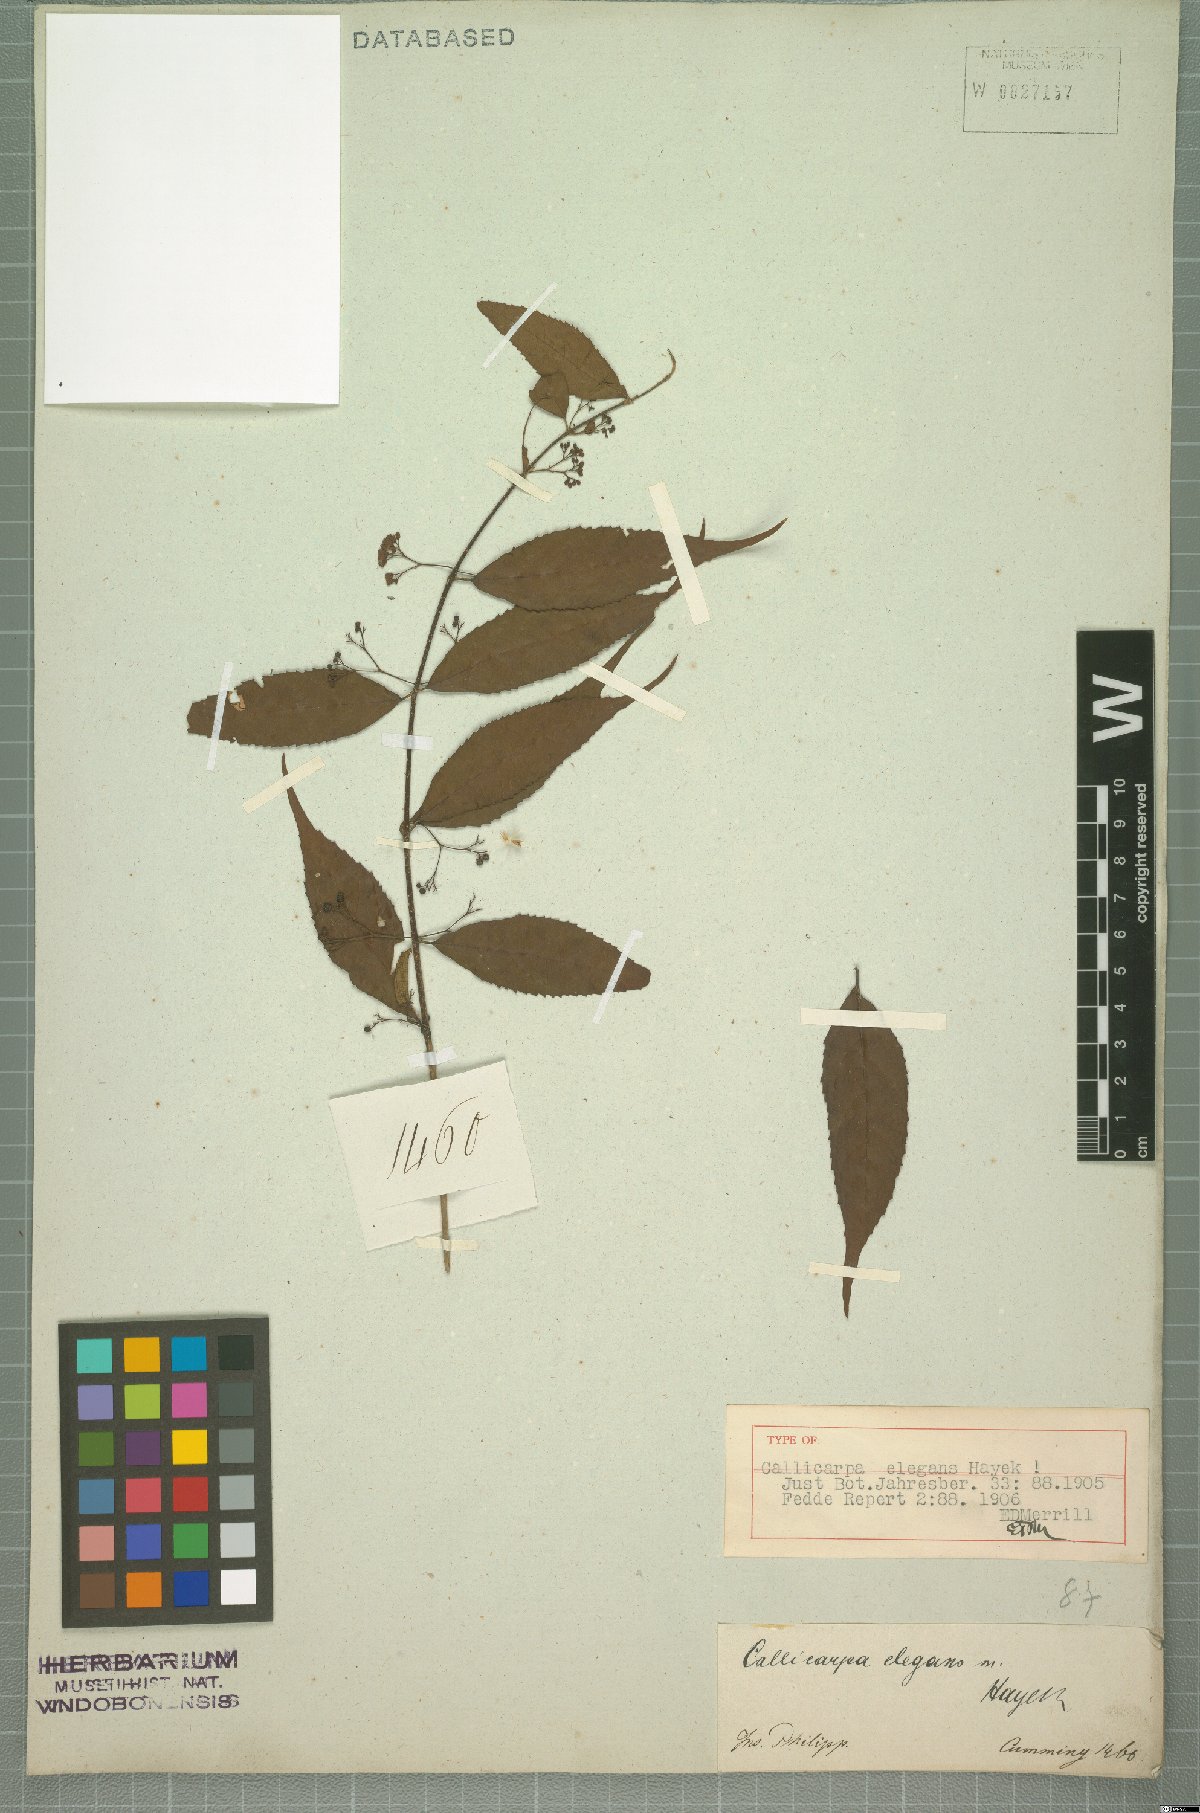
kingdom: Plantae
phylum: Tracheophyta
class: Magnoliopsida
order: Lamiales
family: Lamiaceae
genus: Callicarpa
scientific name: Callicarpa micrantha
